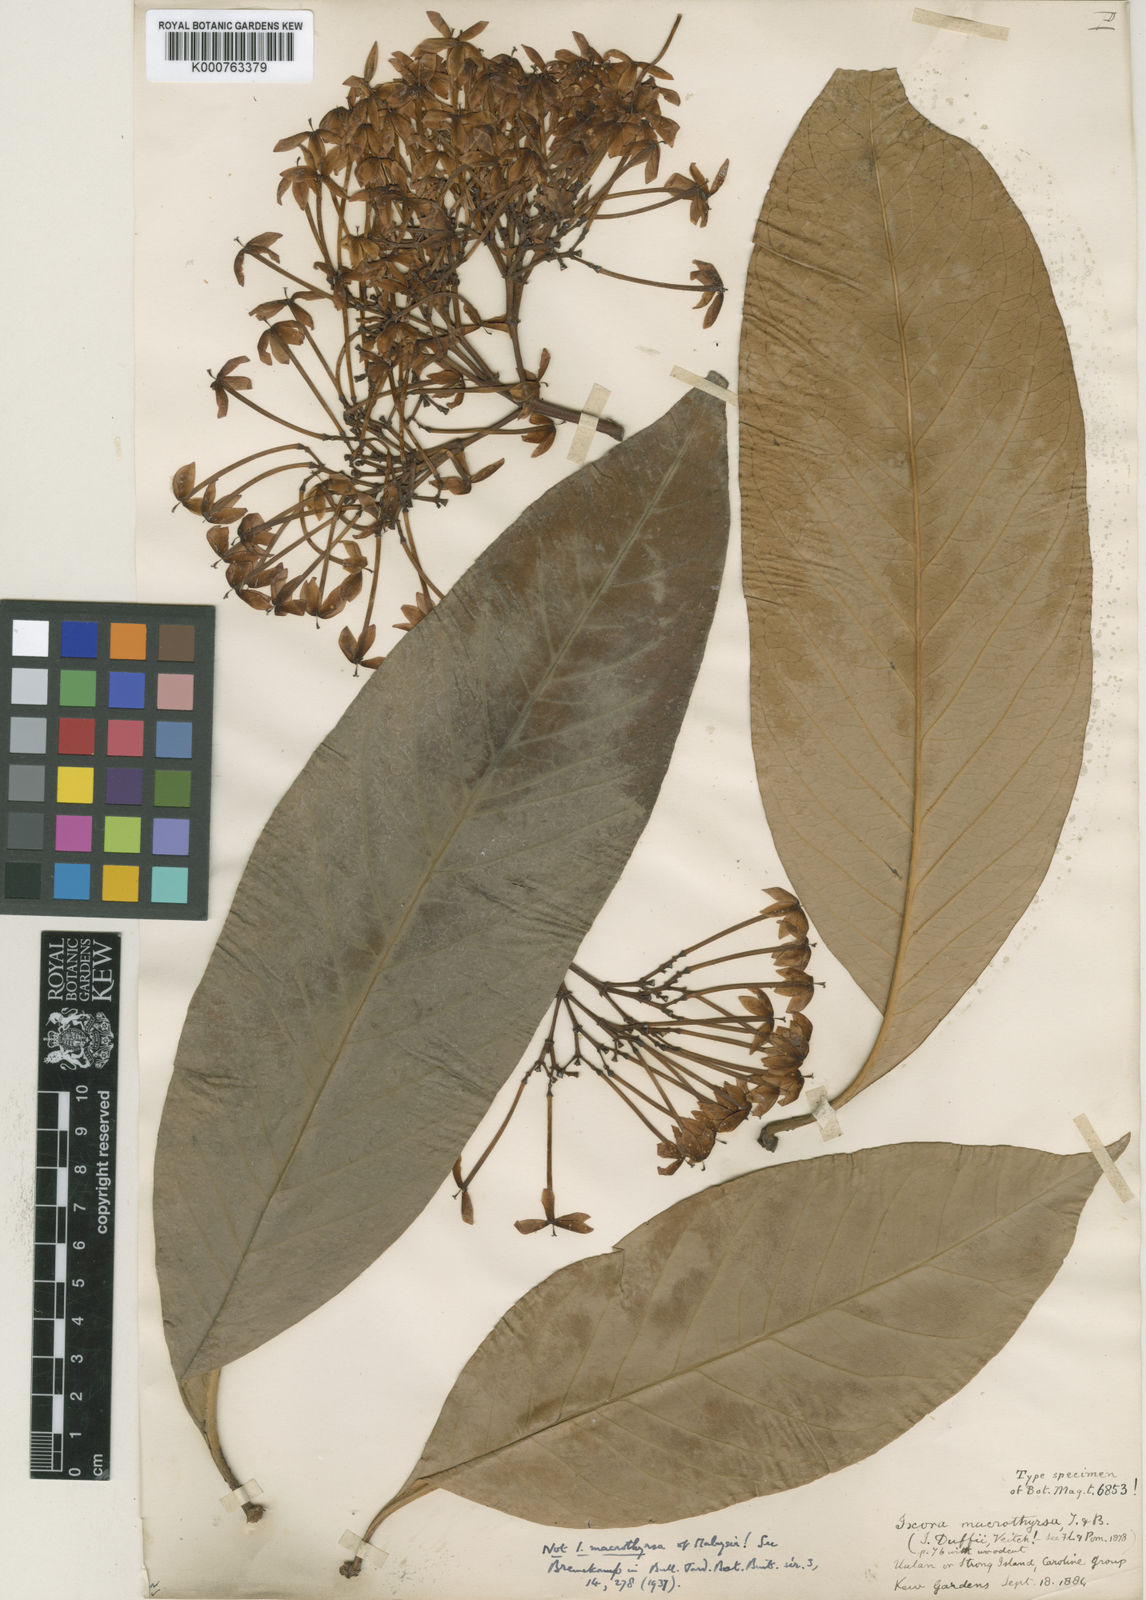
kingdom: Plantae
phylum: Tracheophyta
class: Magnoliopsida
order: Gentianales
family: Rubiaceae
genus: Ixora
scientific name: Ixora casei
